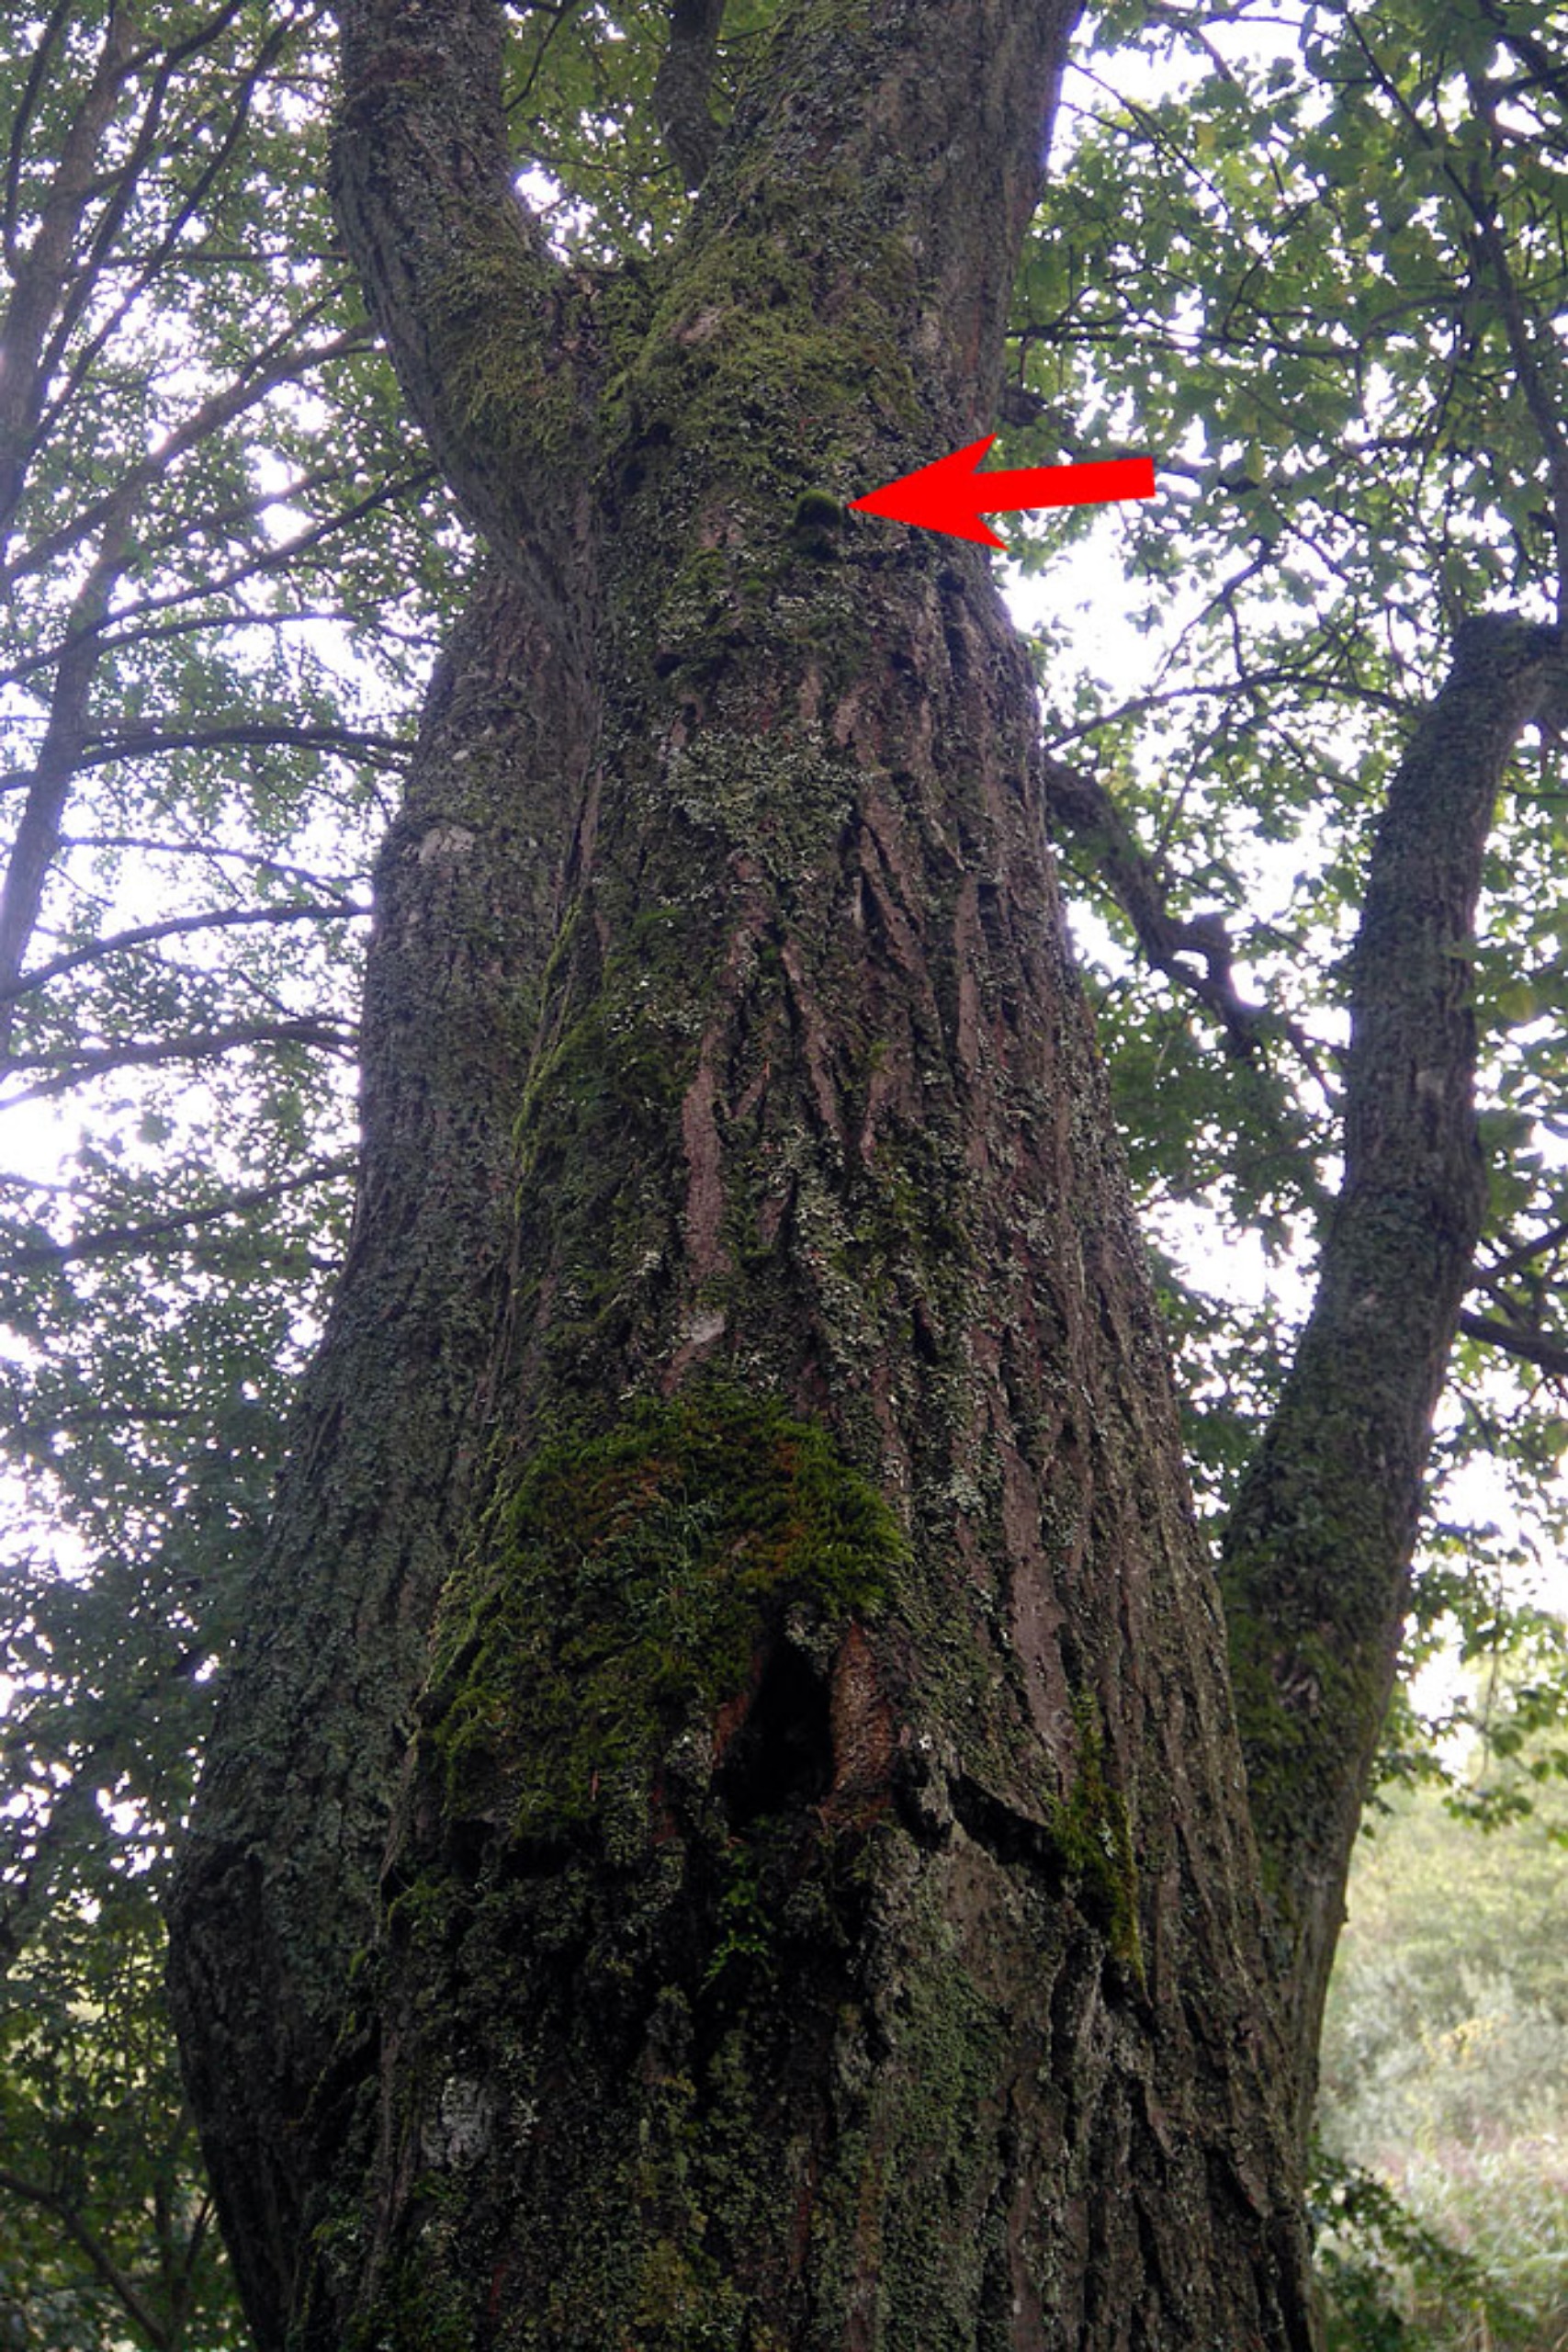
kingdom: Plantae
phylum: Bryophyta
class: Bryopsida
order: Dicranales
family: Dicranaceae
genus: Orthodicranum
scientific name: Orthodicranum tauricum
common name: Skør tyndvinge
